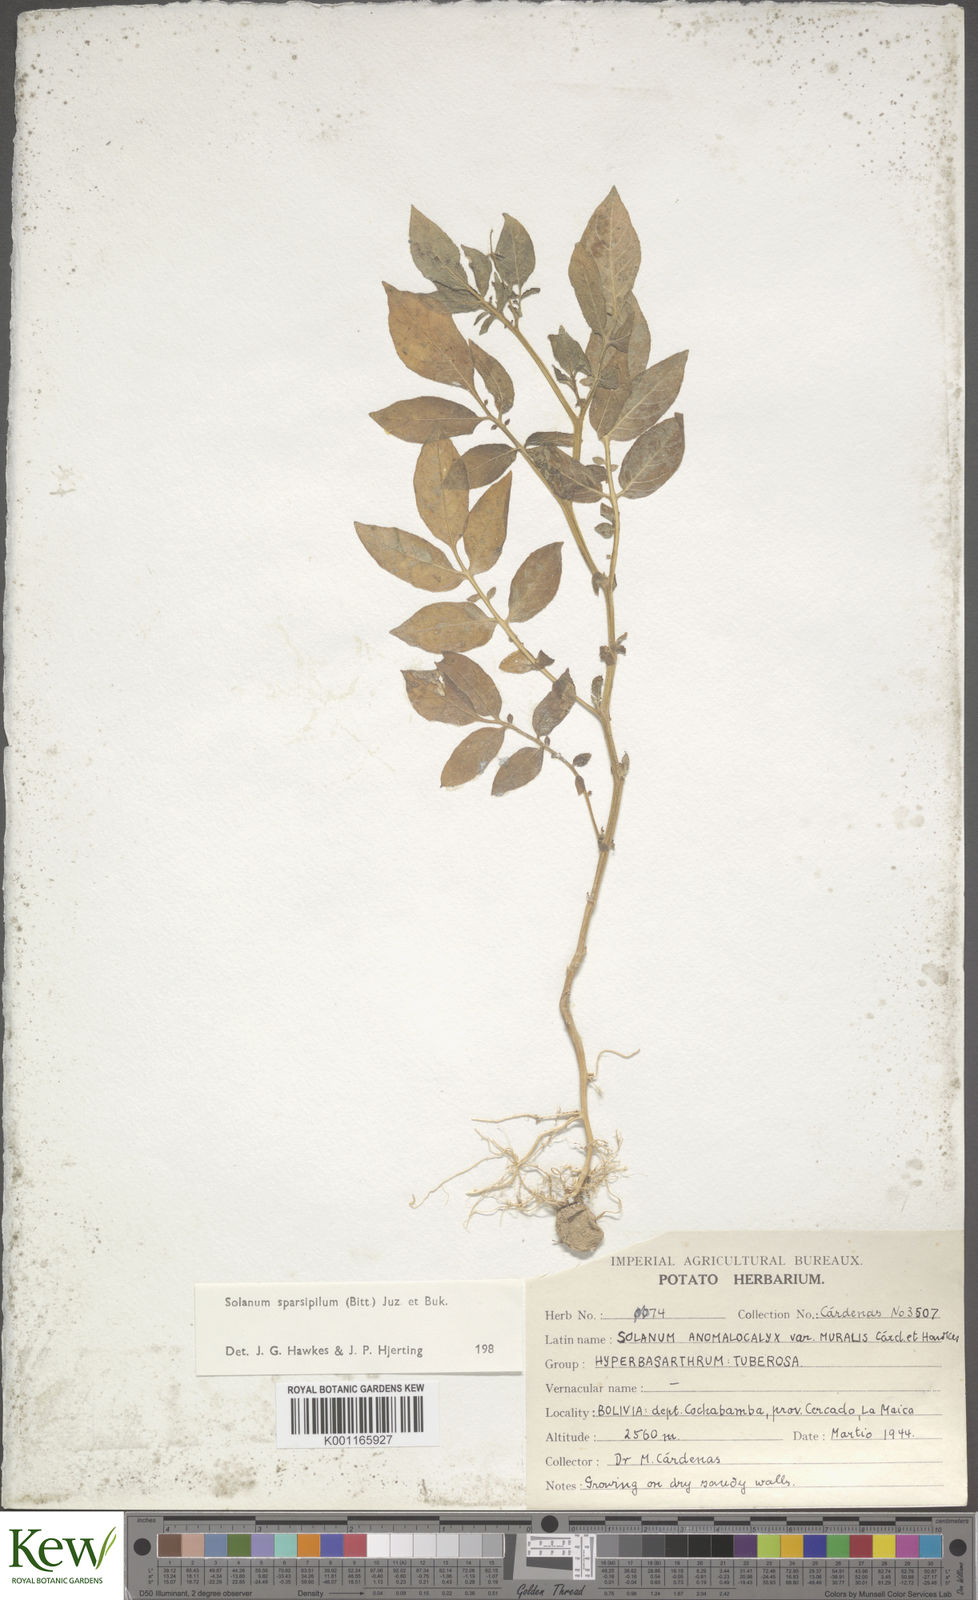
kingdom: Plantae
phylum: Tracheophyta
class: Magnoliopsida
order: Solanales
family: Solanaceae
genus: Solanum
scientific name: Solanum brevicaule
